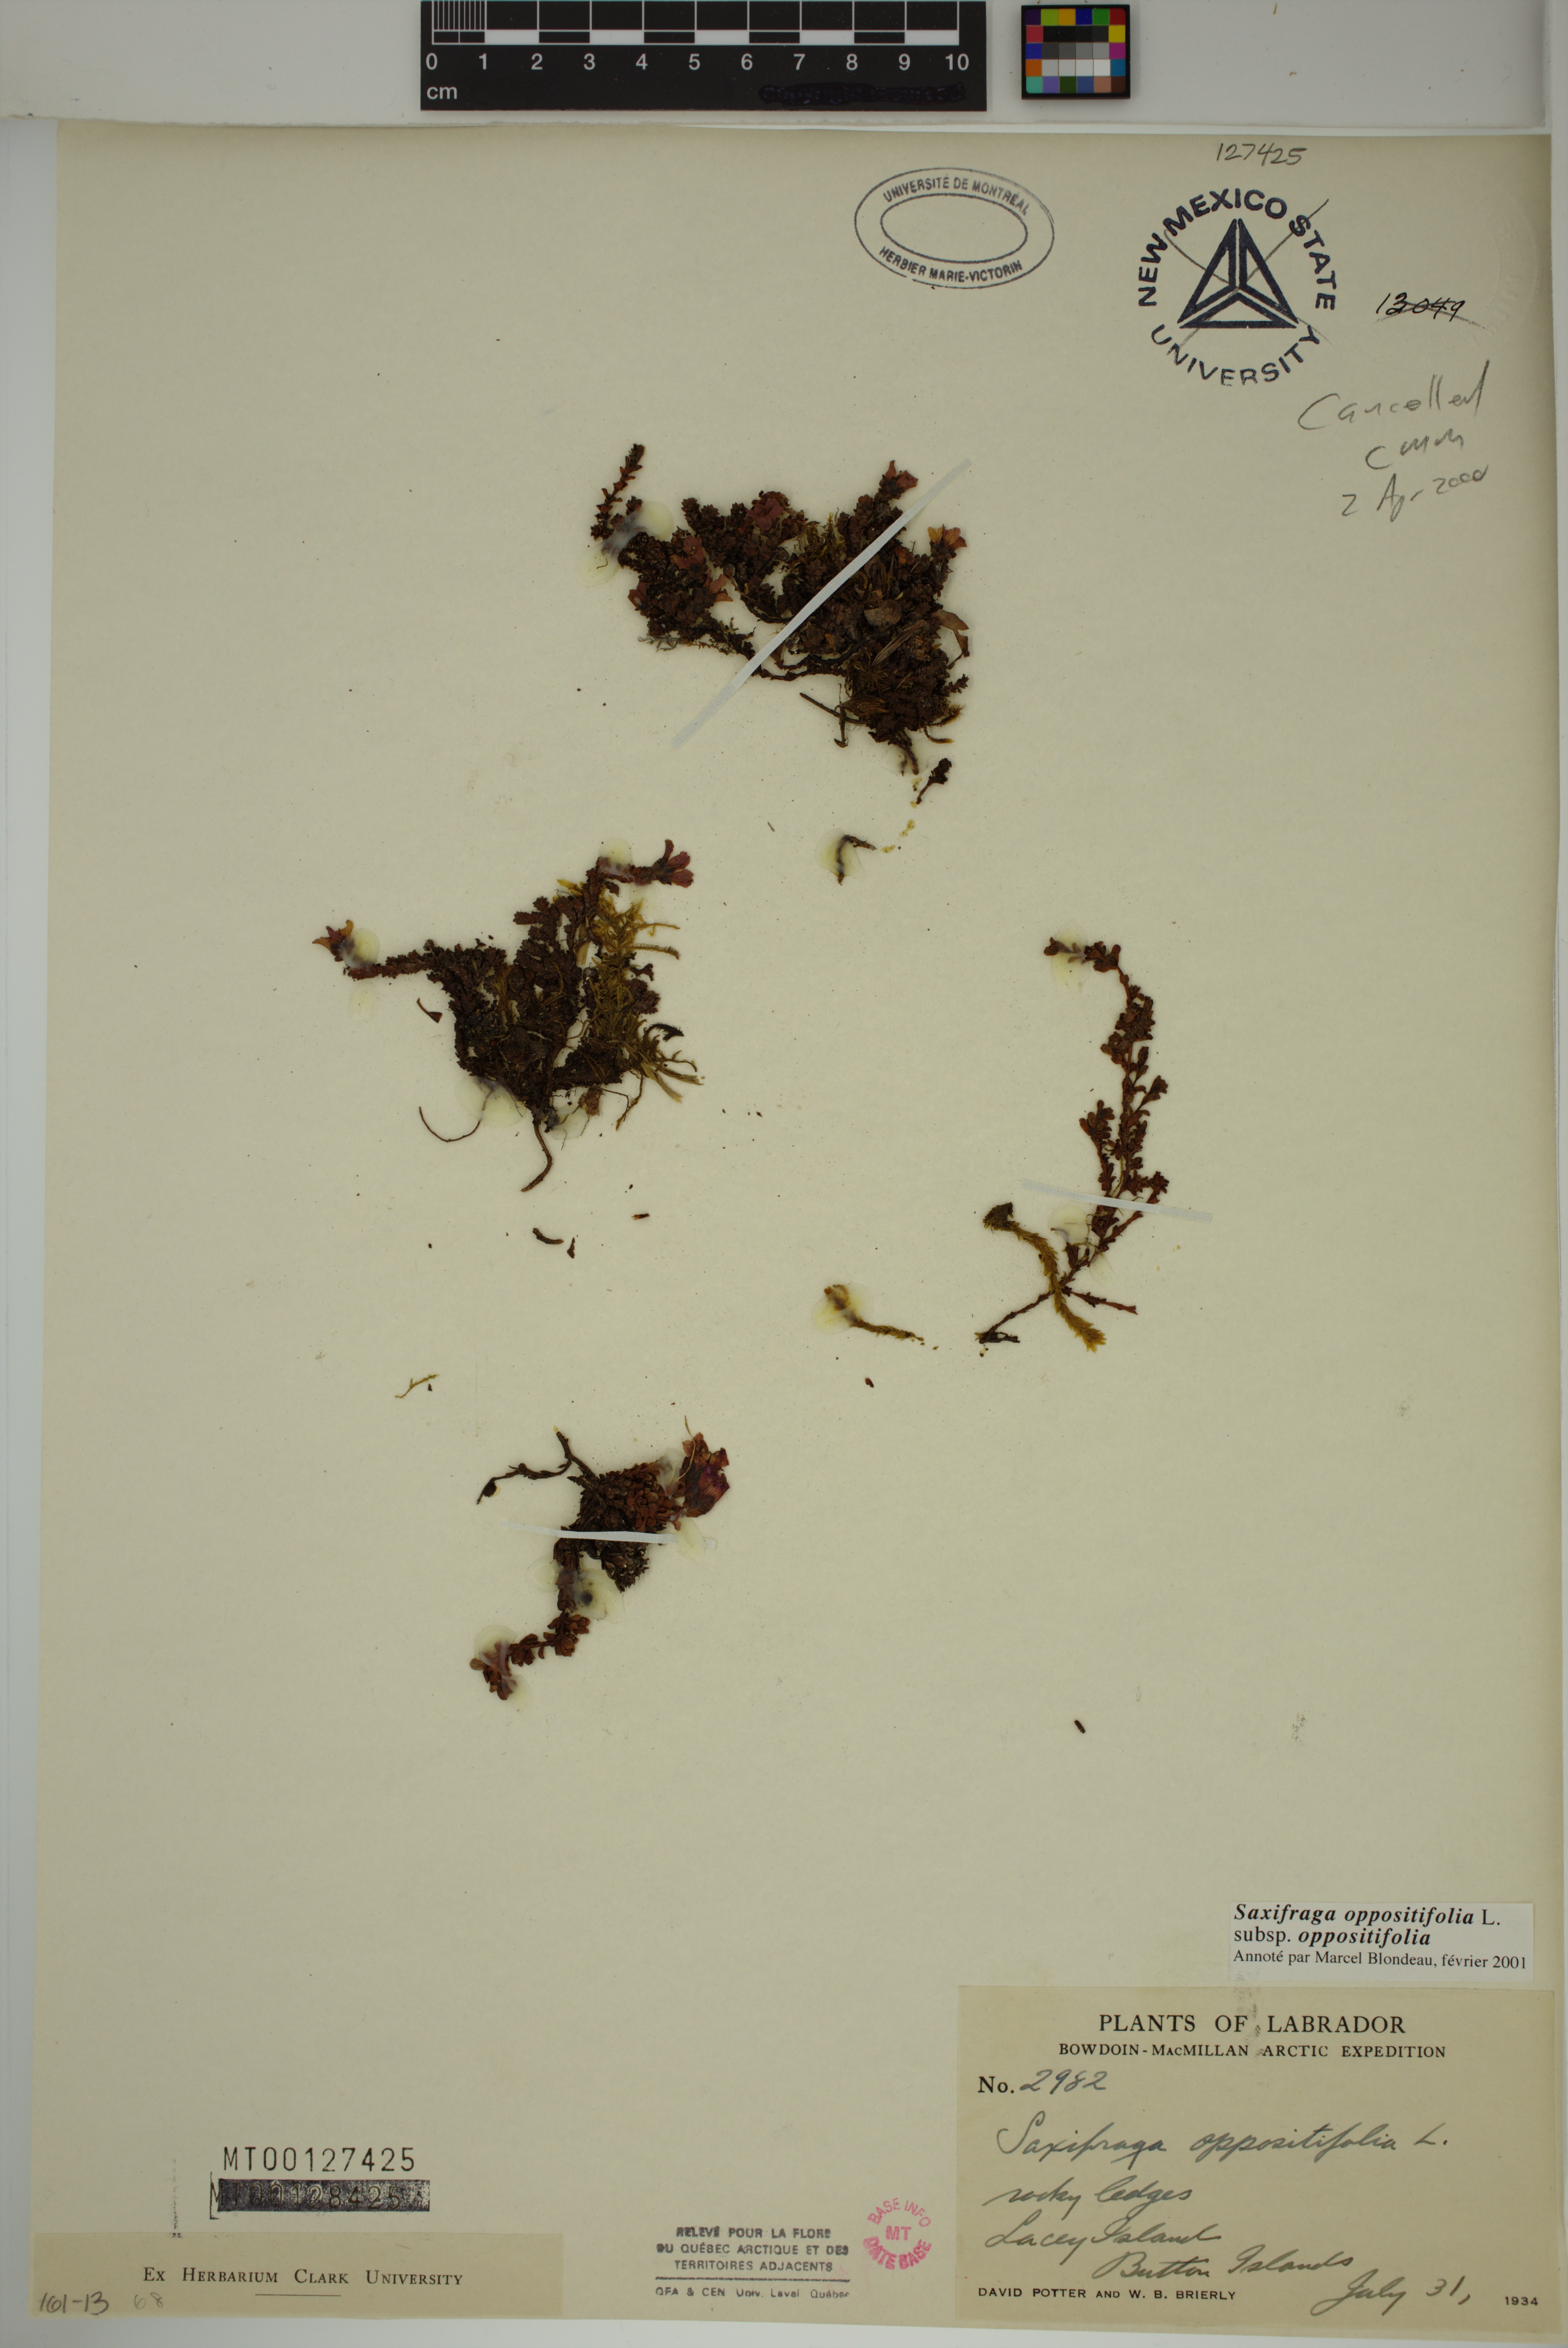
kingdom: Plantae
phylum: Tracheophyta
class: Magnoliopsida
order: Saxifragales
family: Saxifragaceae
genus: Saxifraga
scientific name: Saxifraga oppositifolia
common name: Purple saxifrage
